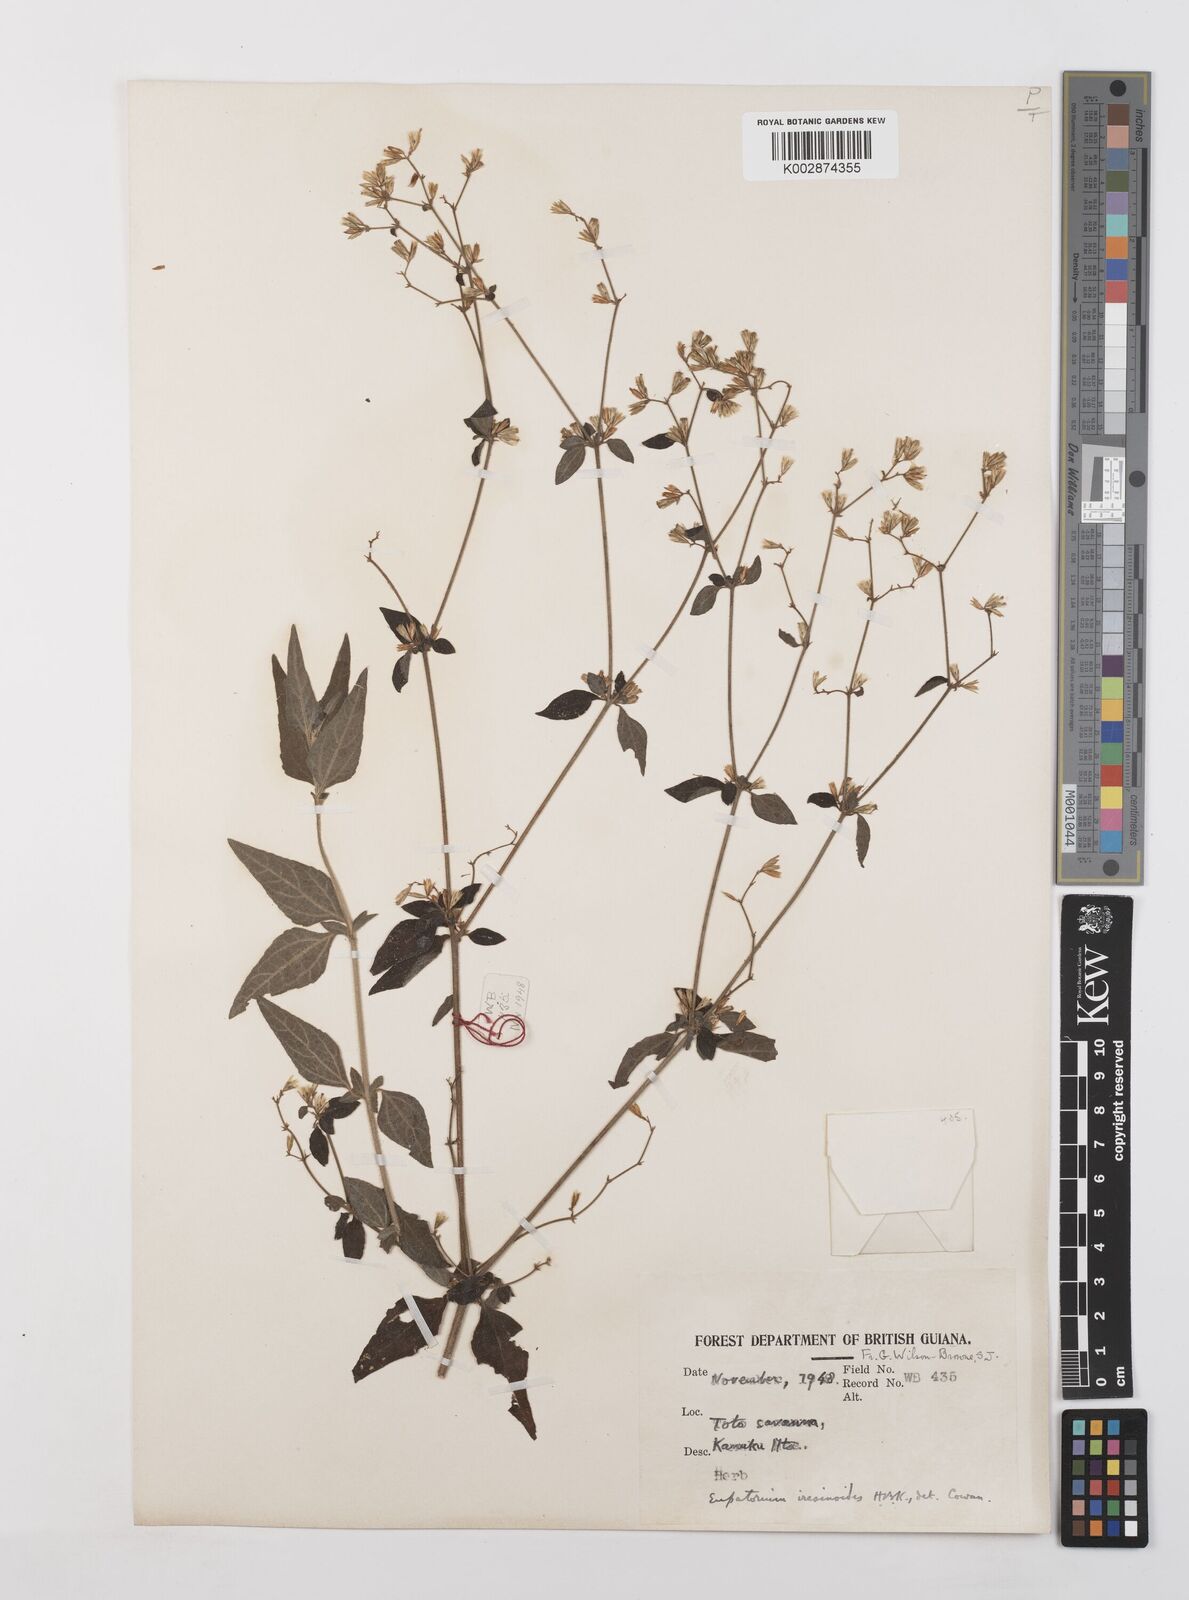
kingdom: Plantae
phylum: Tracheophyta
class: Magnoliopsida
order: Asterales
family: Asteraceae
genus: Condylidium
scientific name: Condylidium iresinoides
